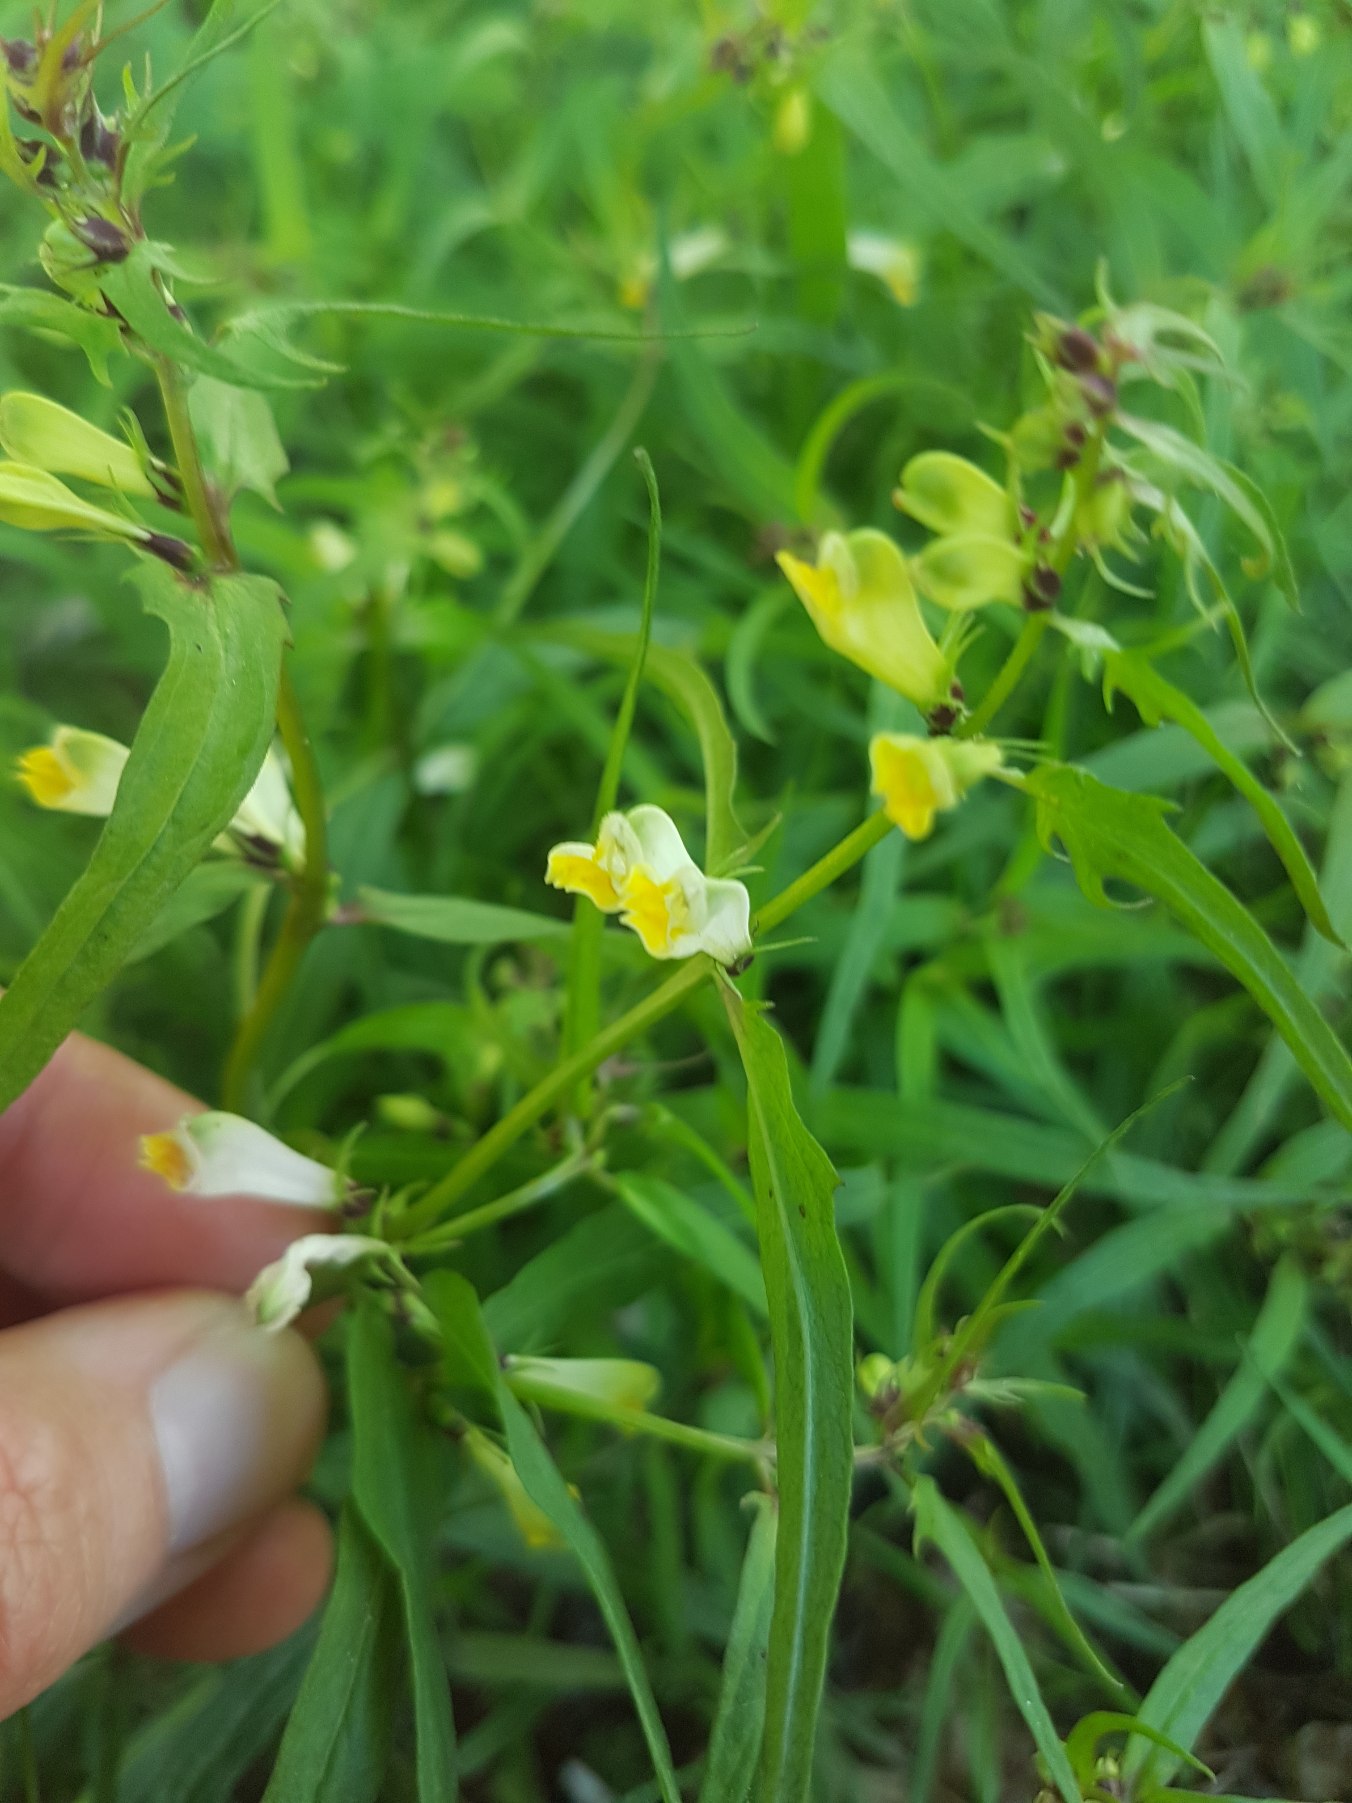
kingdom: Plantae
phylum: Tracheophyta
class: Magnoliopsida
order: Lamiales
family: Orobanchaceae
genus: Melampyrum
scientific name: Melampyrum pratense
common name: Almindelig kohvede
